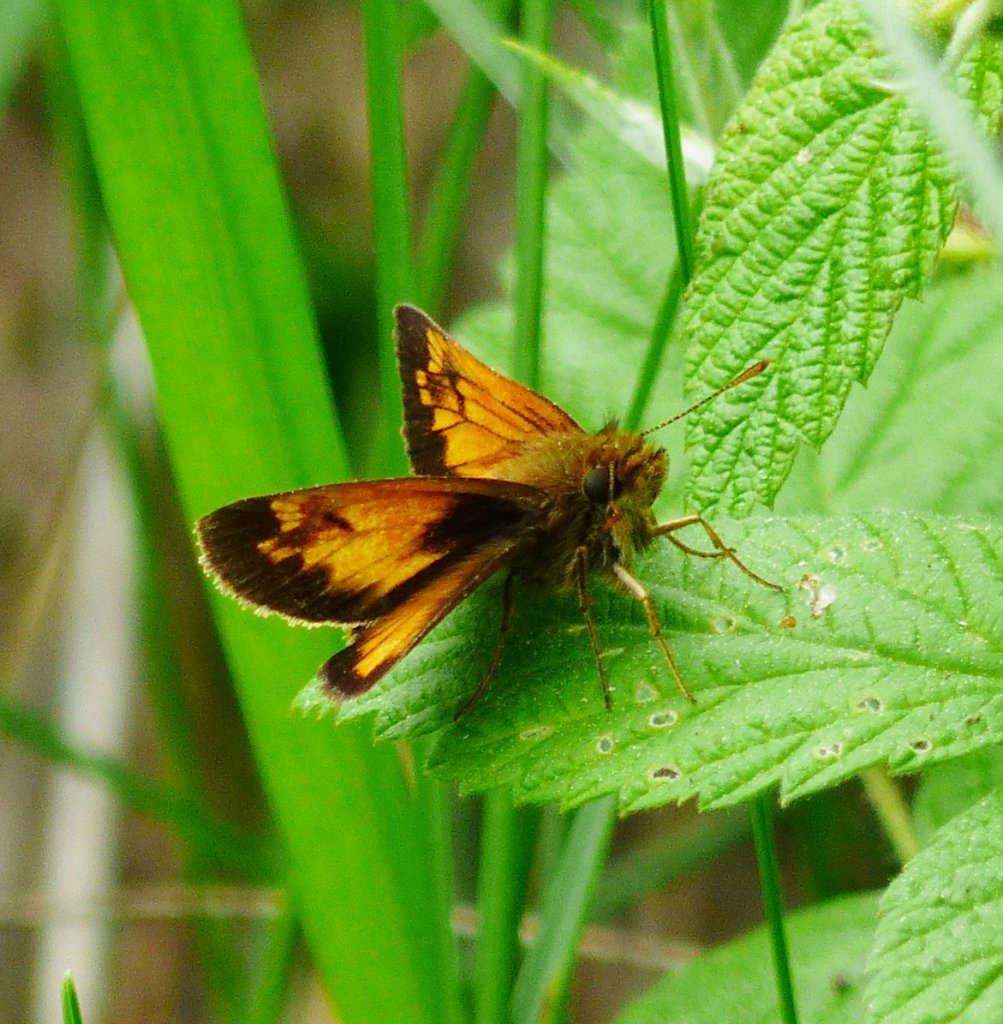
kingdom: Animalia
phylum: Arthropoda
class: Insecta
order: Lepidoptera
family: Hesperiidae
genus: Lon
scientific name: Lon hobomok
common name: Hobomok Skipper
